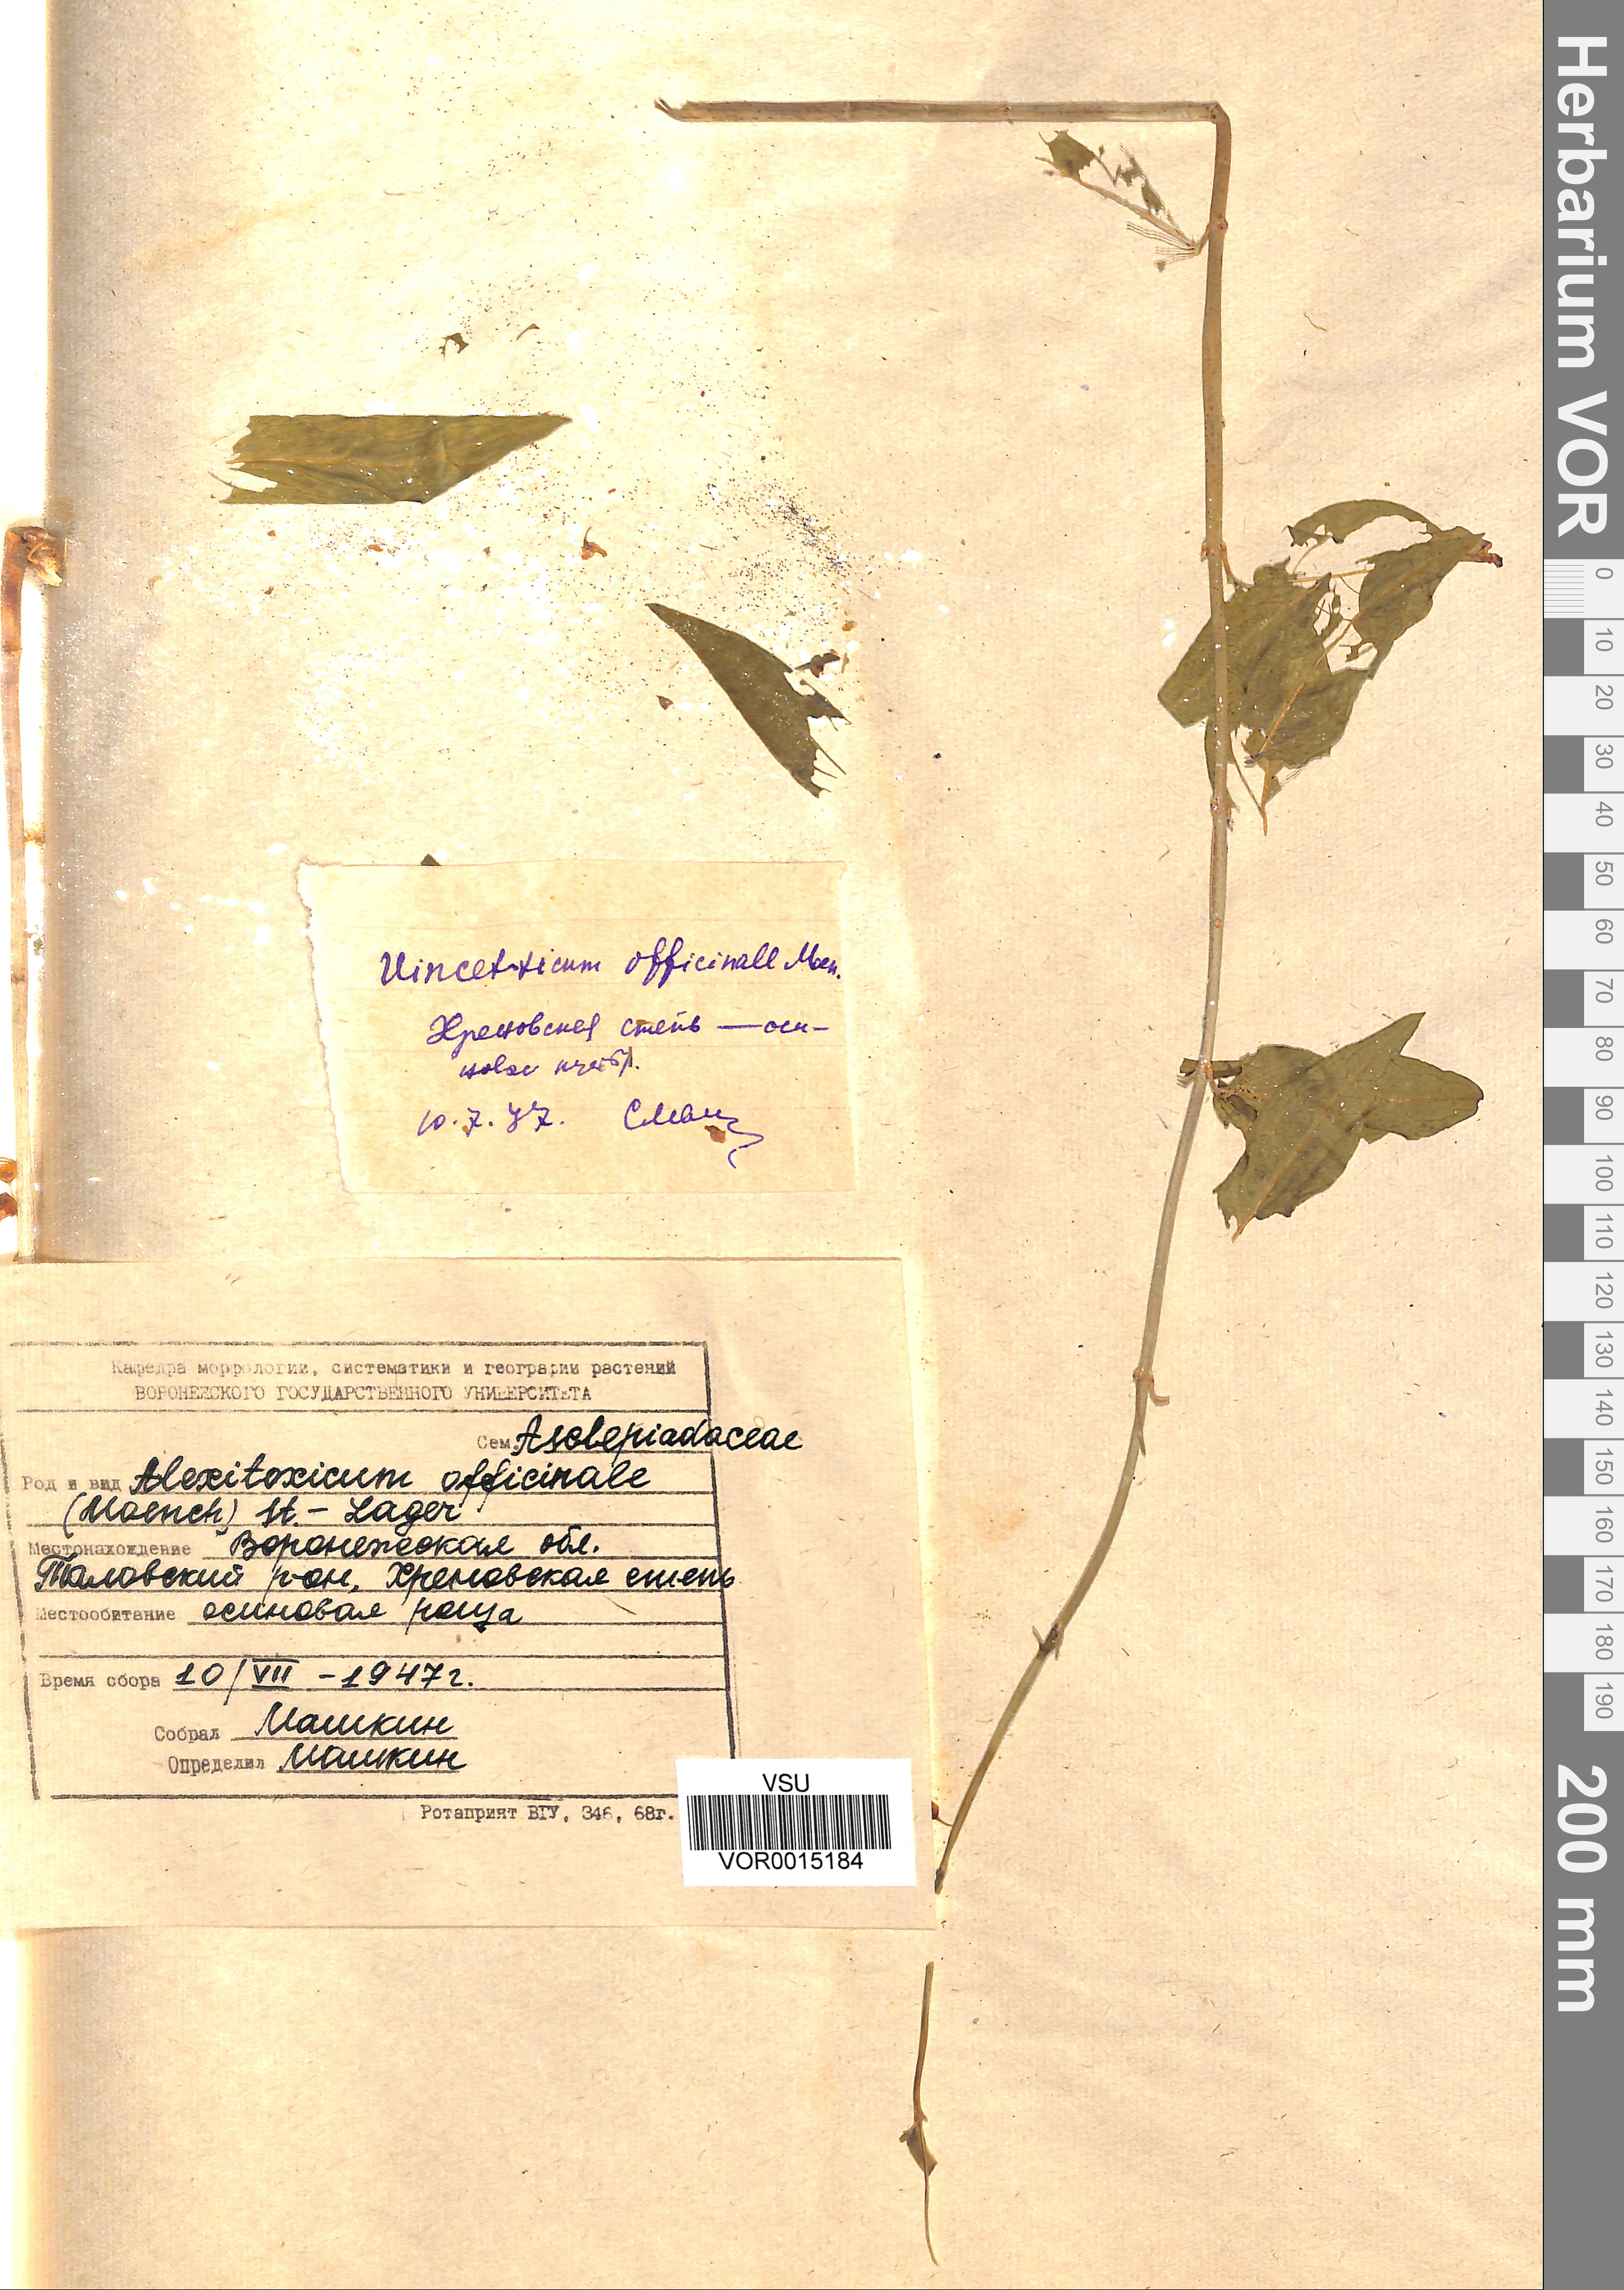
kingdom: Plantae
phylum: Tracheophyta
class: Magnoliopsida
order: Gentianales
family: Apocynaceae
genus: Vincetoxicum
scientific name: Vincetoxicum hirundinaria
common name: White swallowwort
